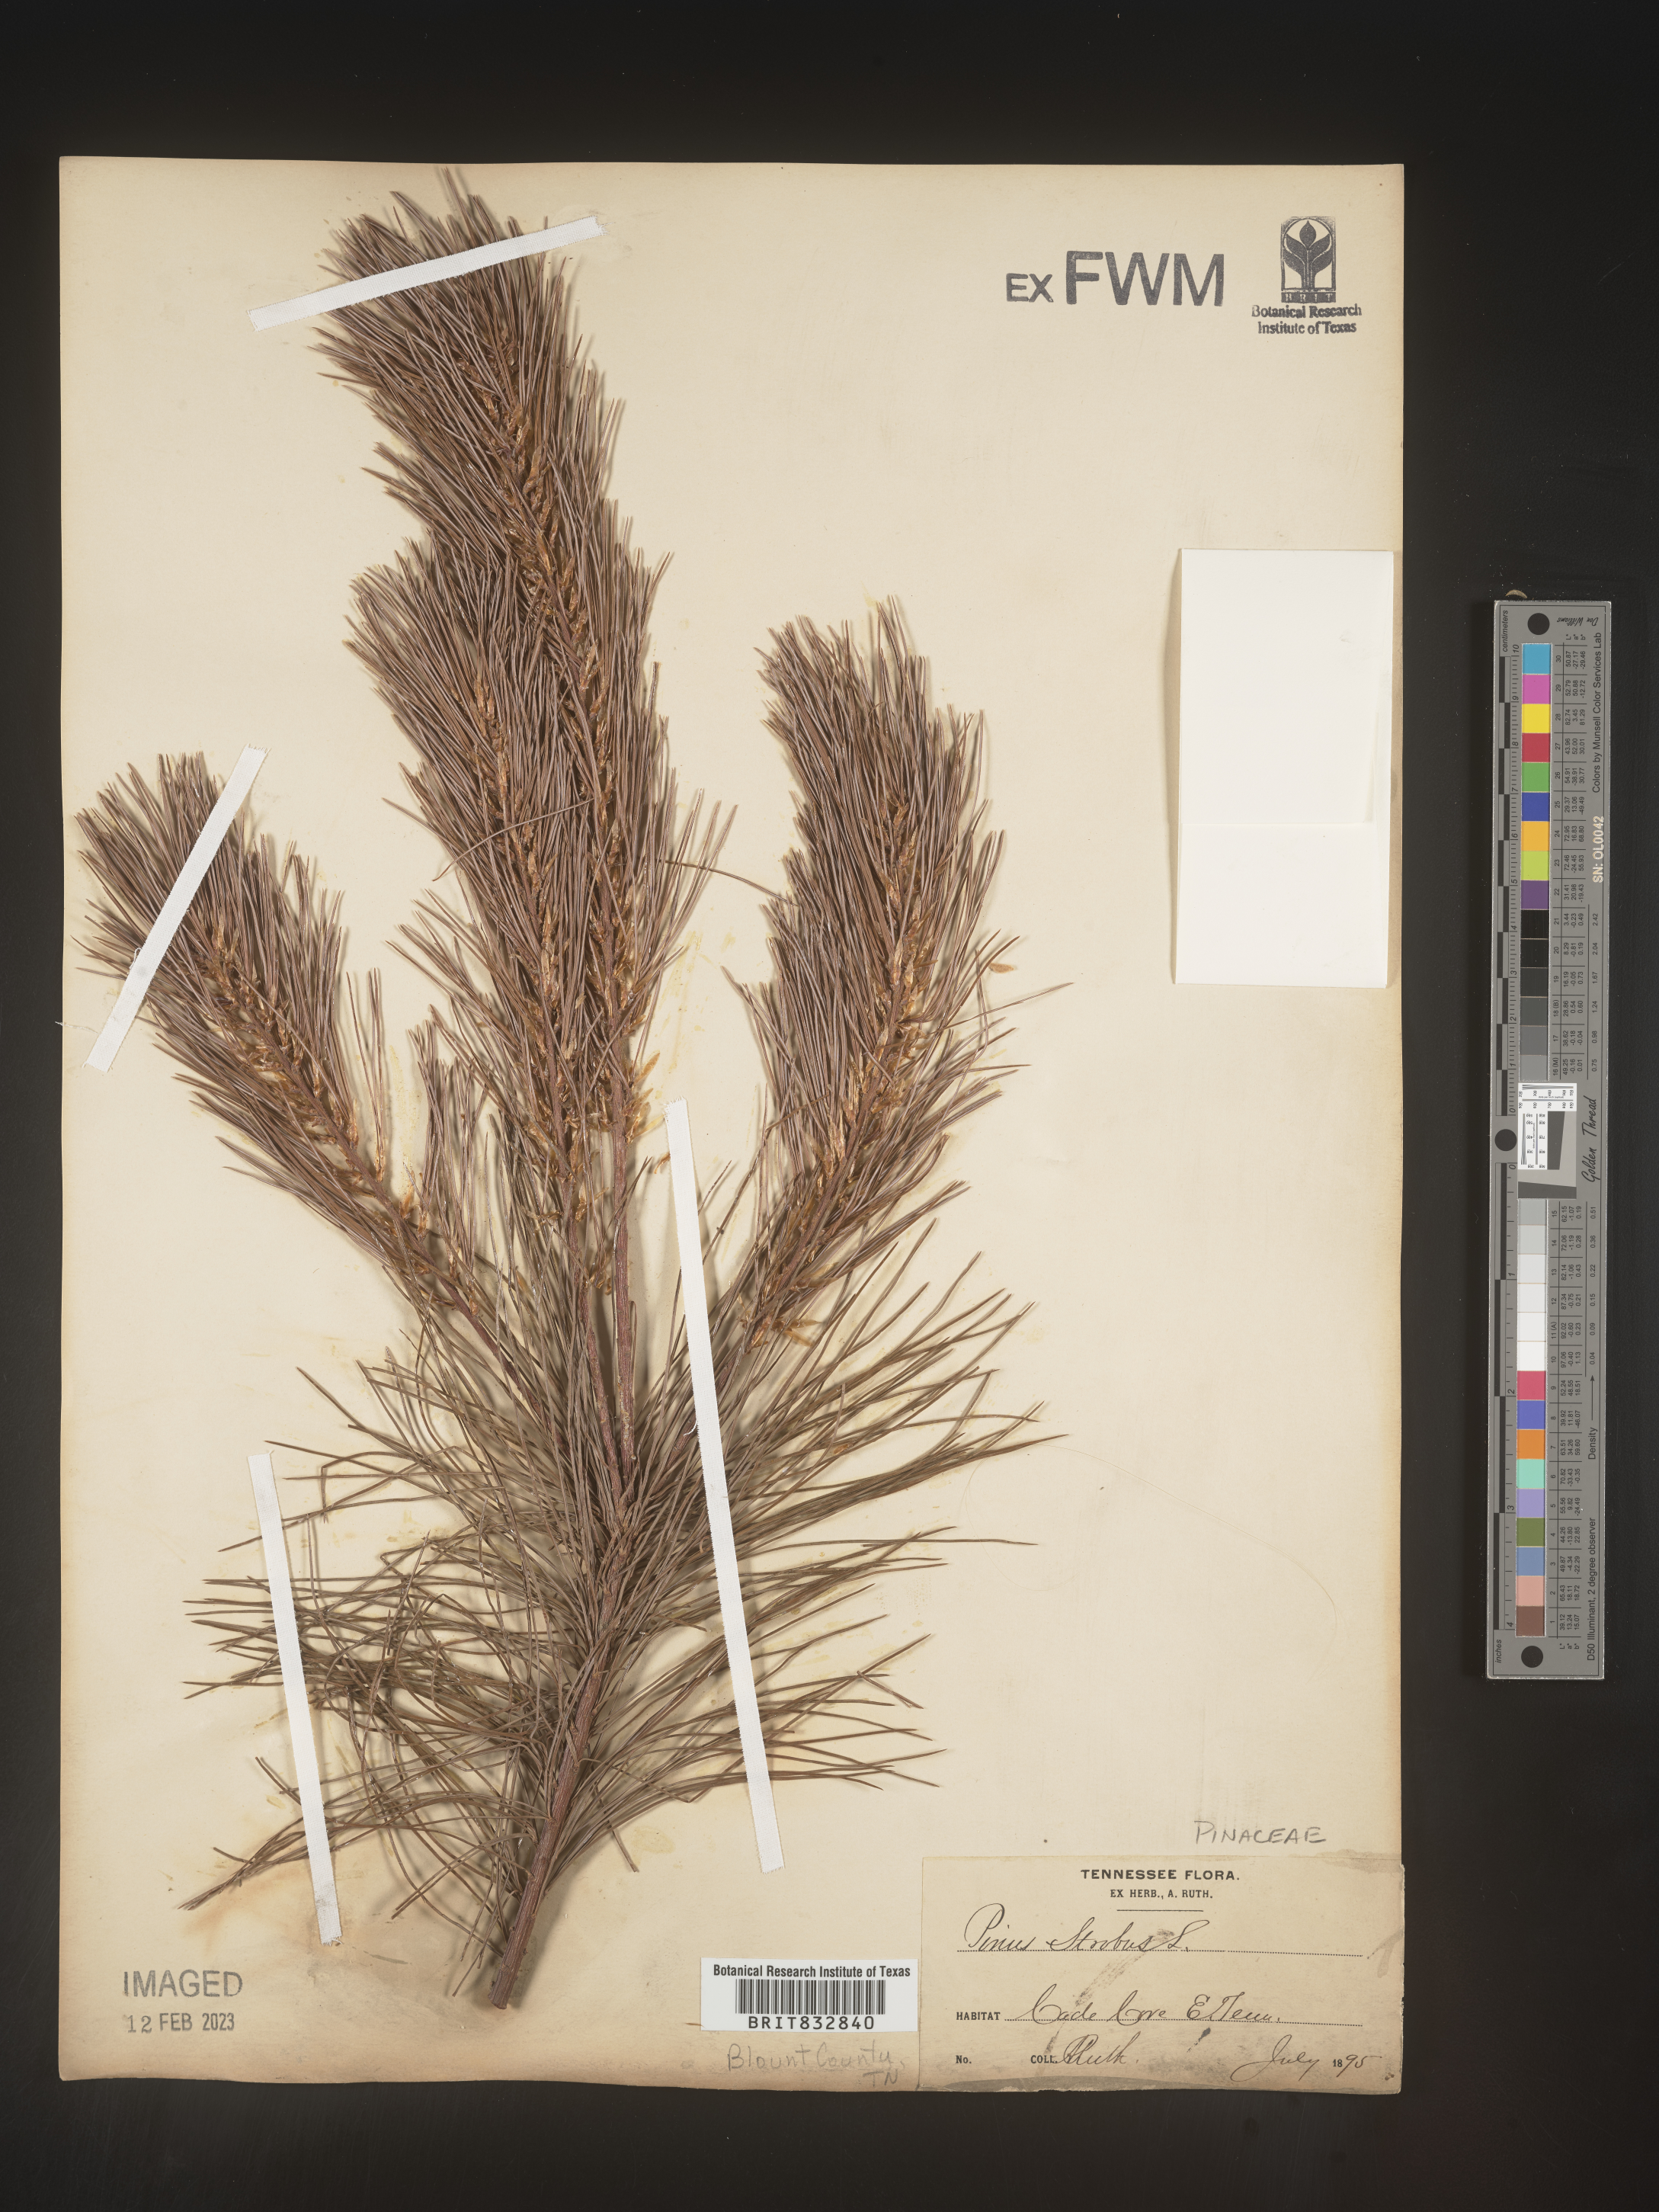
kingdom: Plantae
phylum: Tracheophyta
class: Pinopsida
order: Pinales
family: Pinaceae
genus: Pinus
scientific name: Pinus strobus
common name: Weymouth pine
